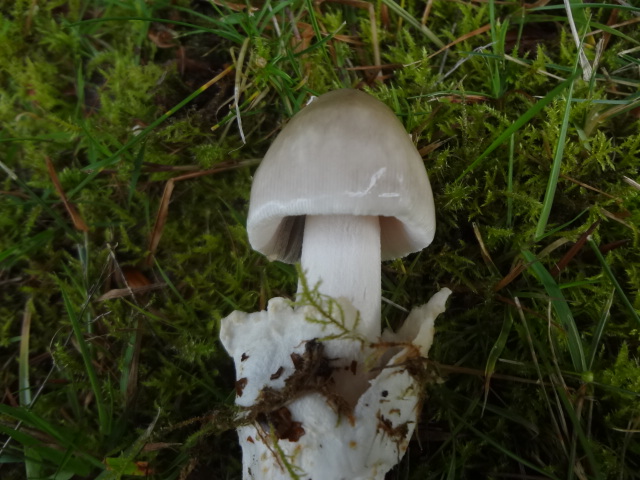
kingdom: Fungi
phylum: Basidiomycota
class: Agaricomycetes
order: Agaricales
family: Amanitaceae
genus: Amanita
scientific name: Amanita vaginata
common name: grå kam-fluesvamp
